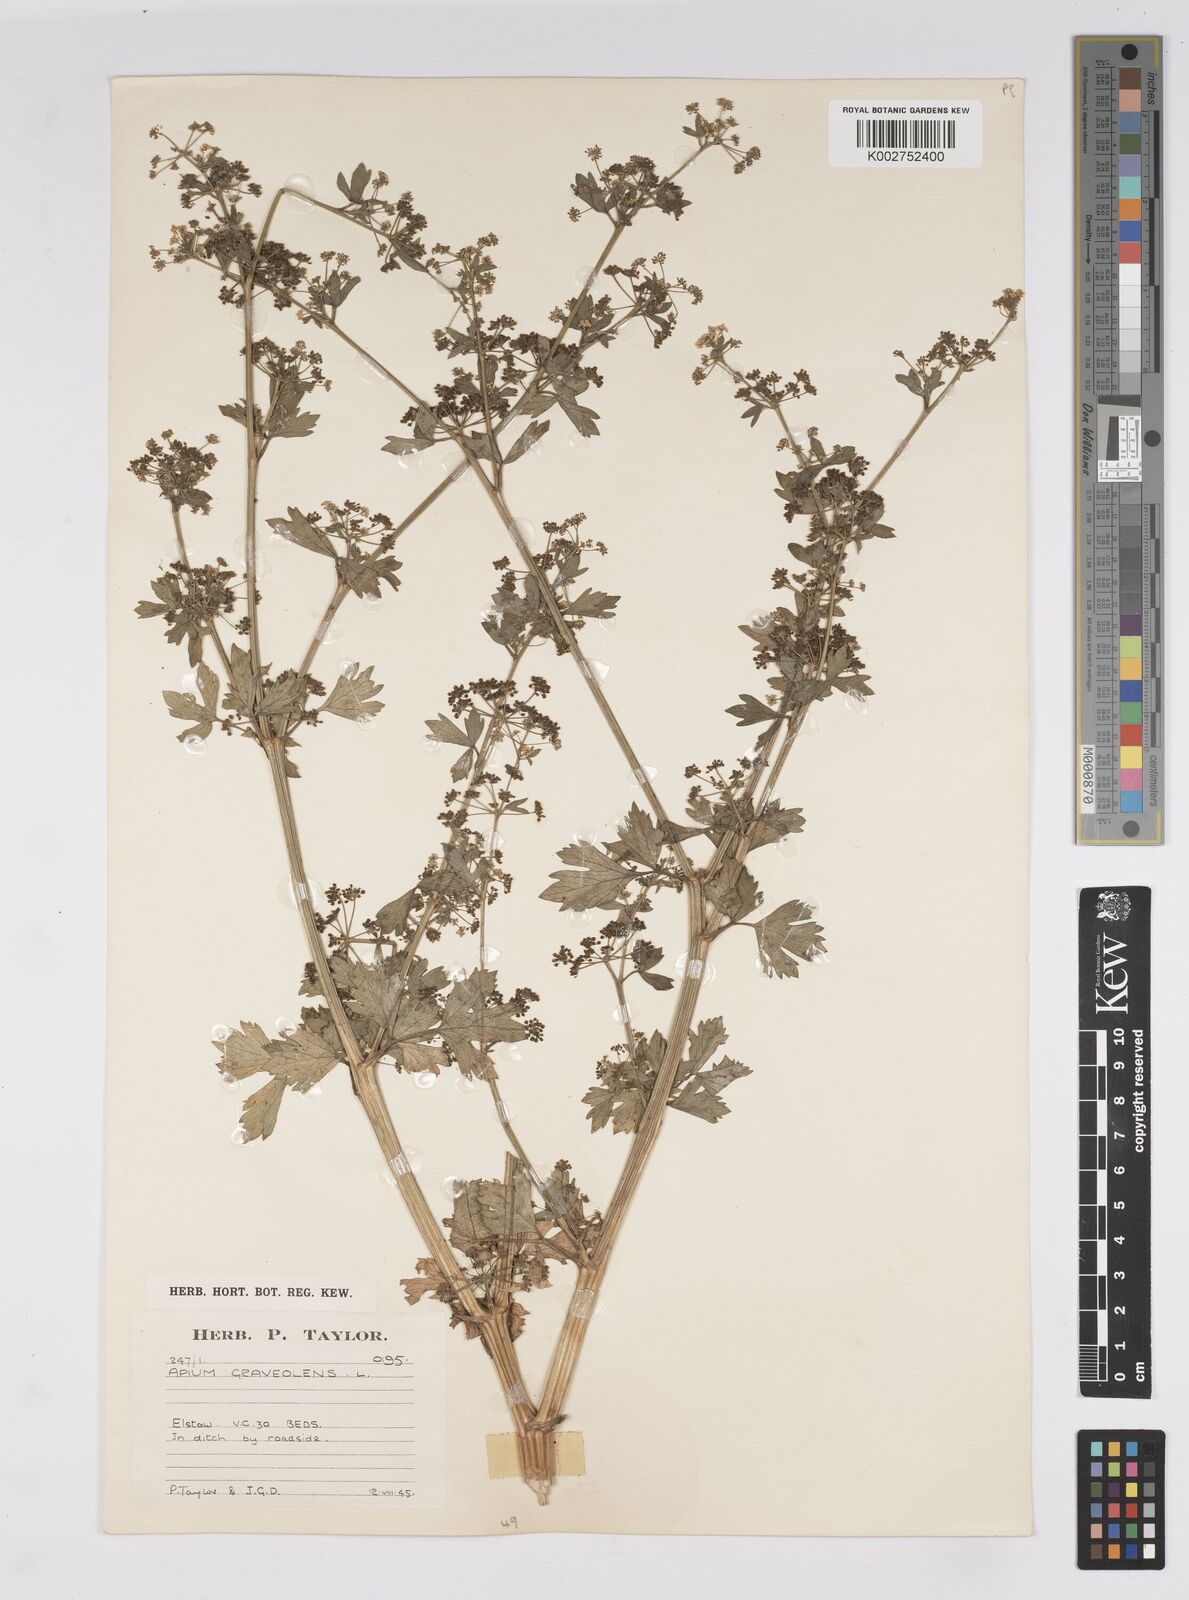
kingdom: Plantae
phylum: Tracheophyta
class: Magnoliopsida
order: Apiales
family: Apiaceae
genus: Apium
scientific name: Apium graveolens
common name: Wild celery
